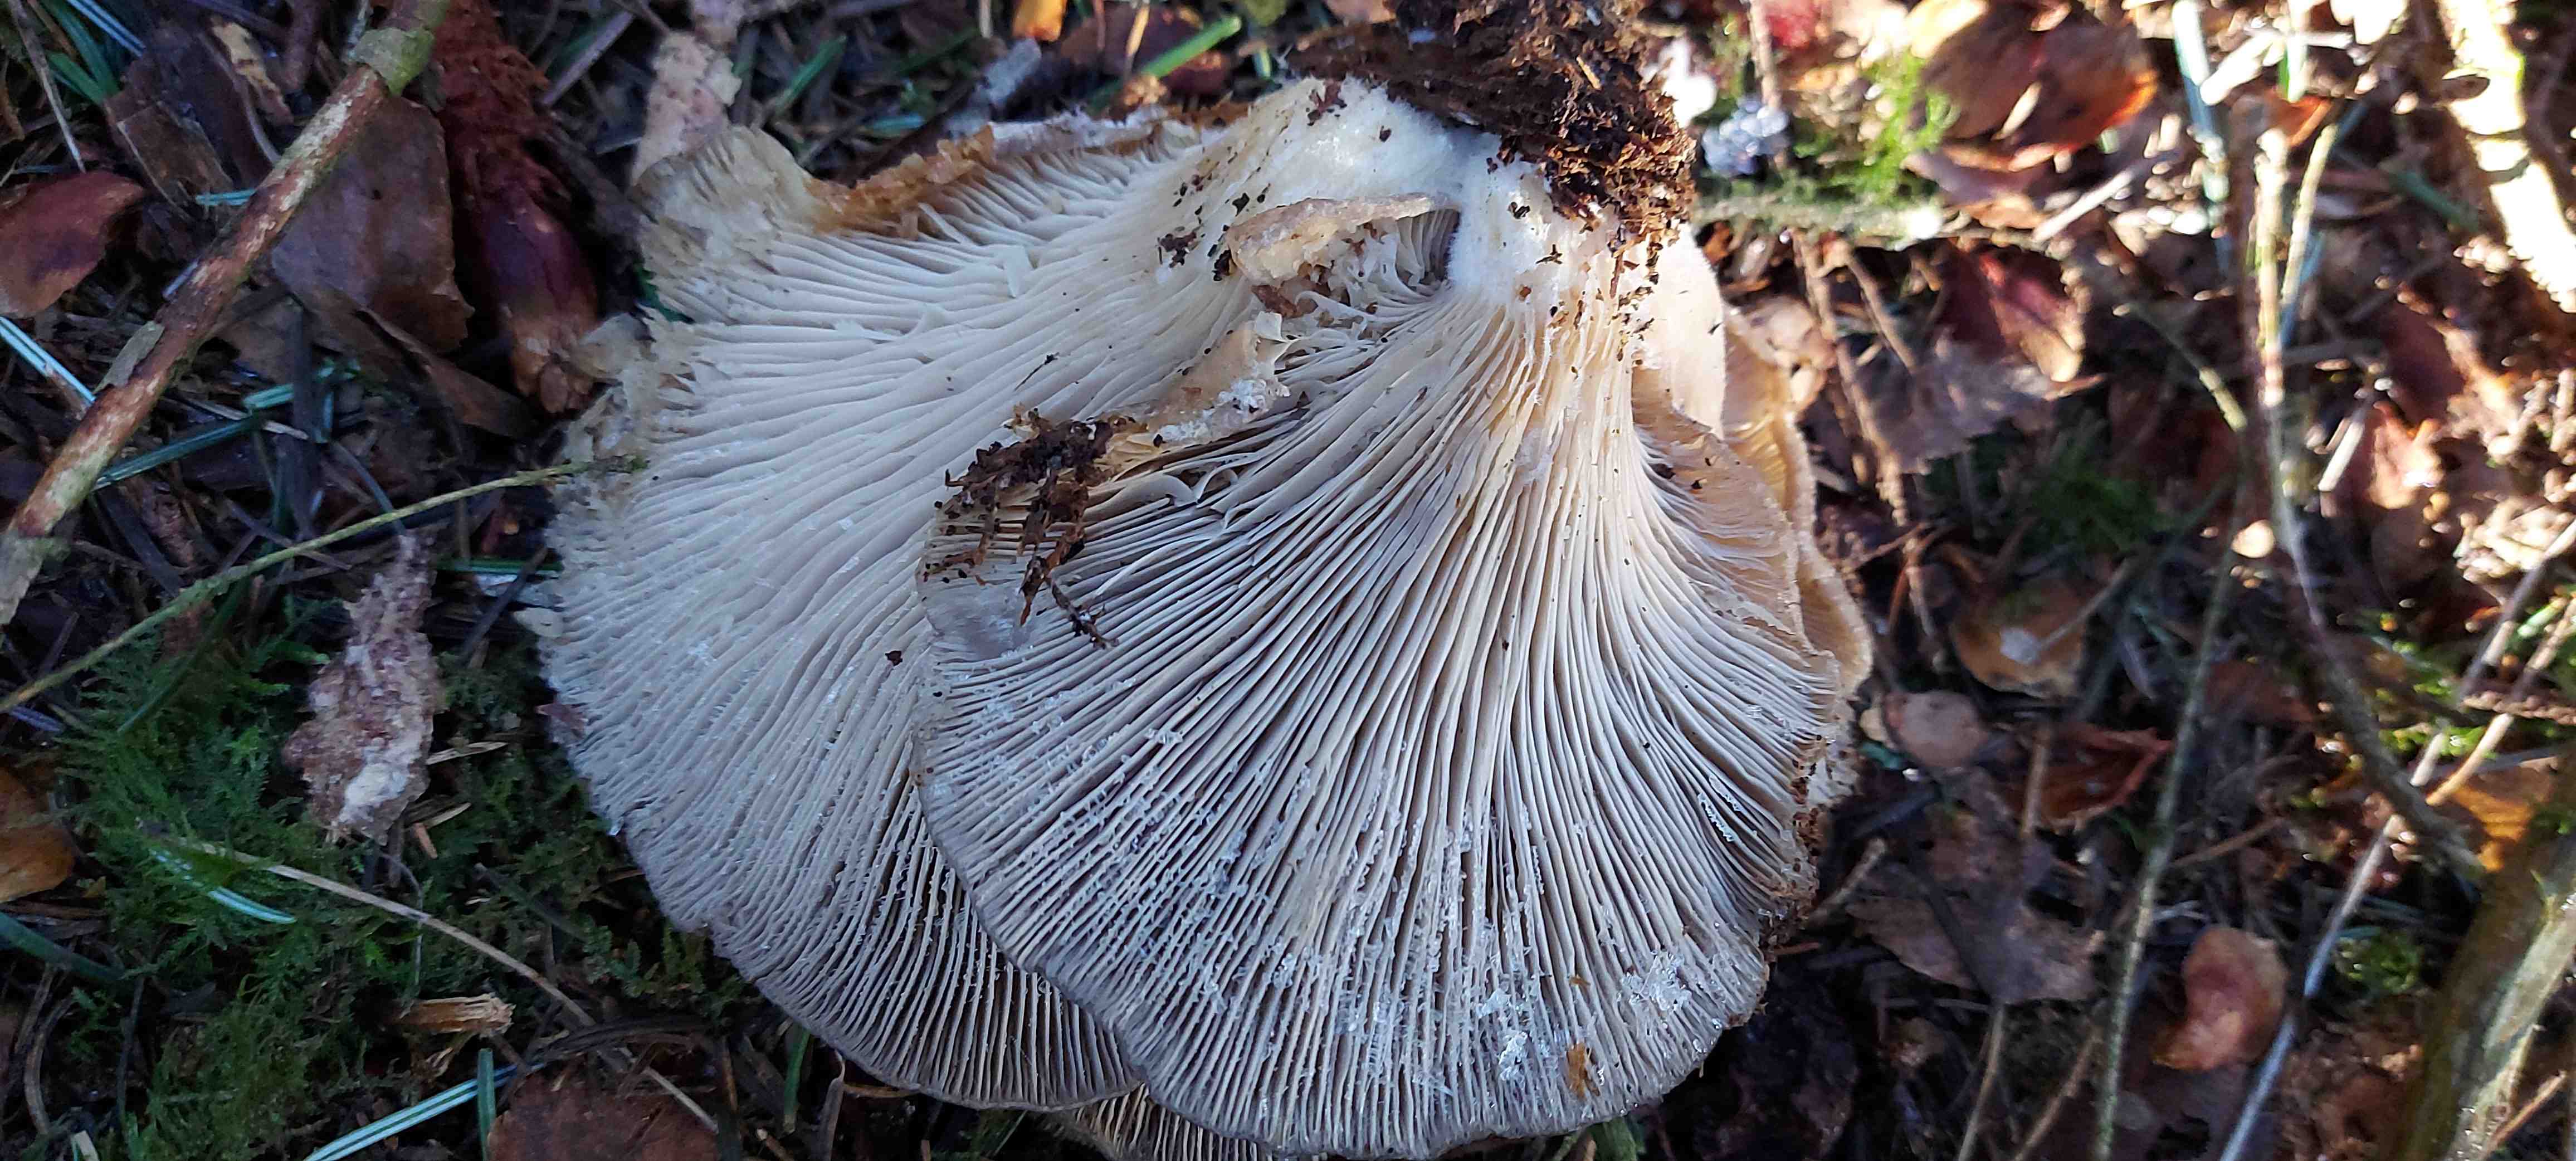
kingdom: Fungi
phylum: Basidiomycota
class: Agaricomycetes
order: Agaricales
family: Pleurotaceae
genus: Pleurotus
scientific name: Pleurotus ostreatus
